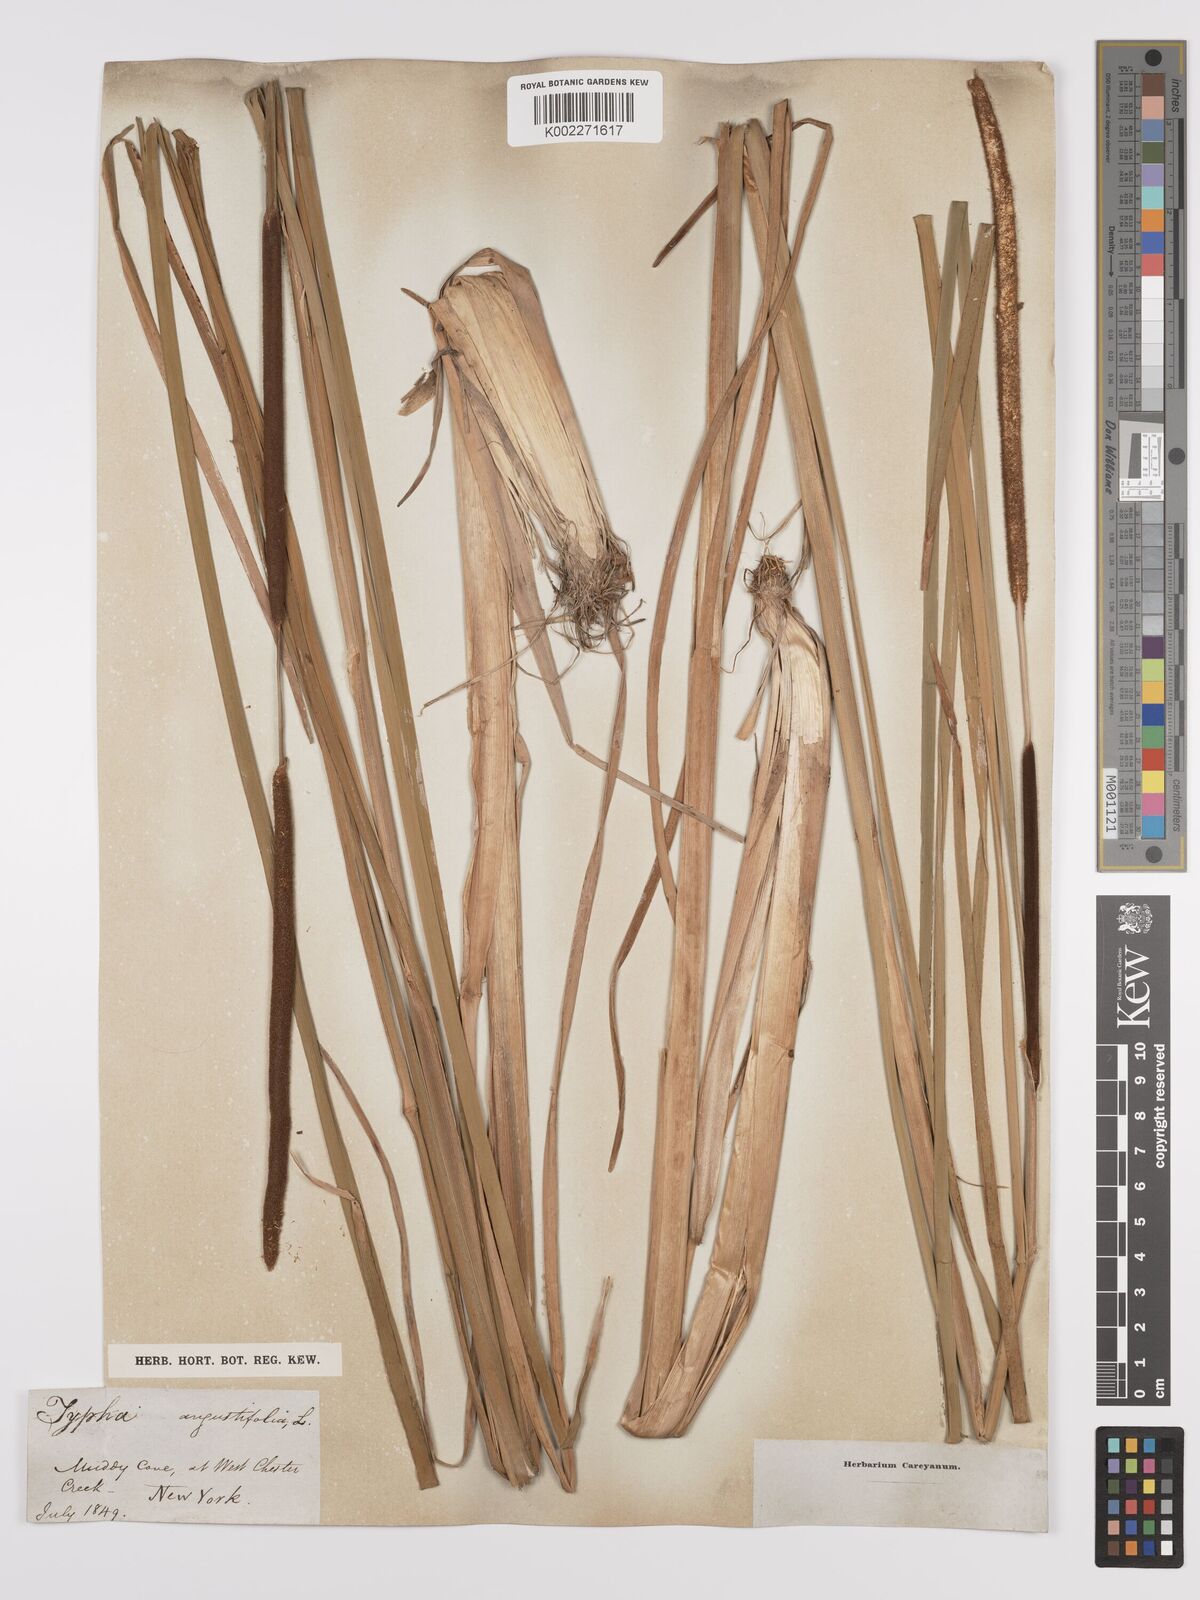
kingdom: Plantae
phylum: Tracheophyta
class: Liliopsida
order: Poales
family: Typhaceae
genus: Typha
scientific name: Typha angustifolia
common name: Lesser bulrush
